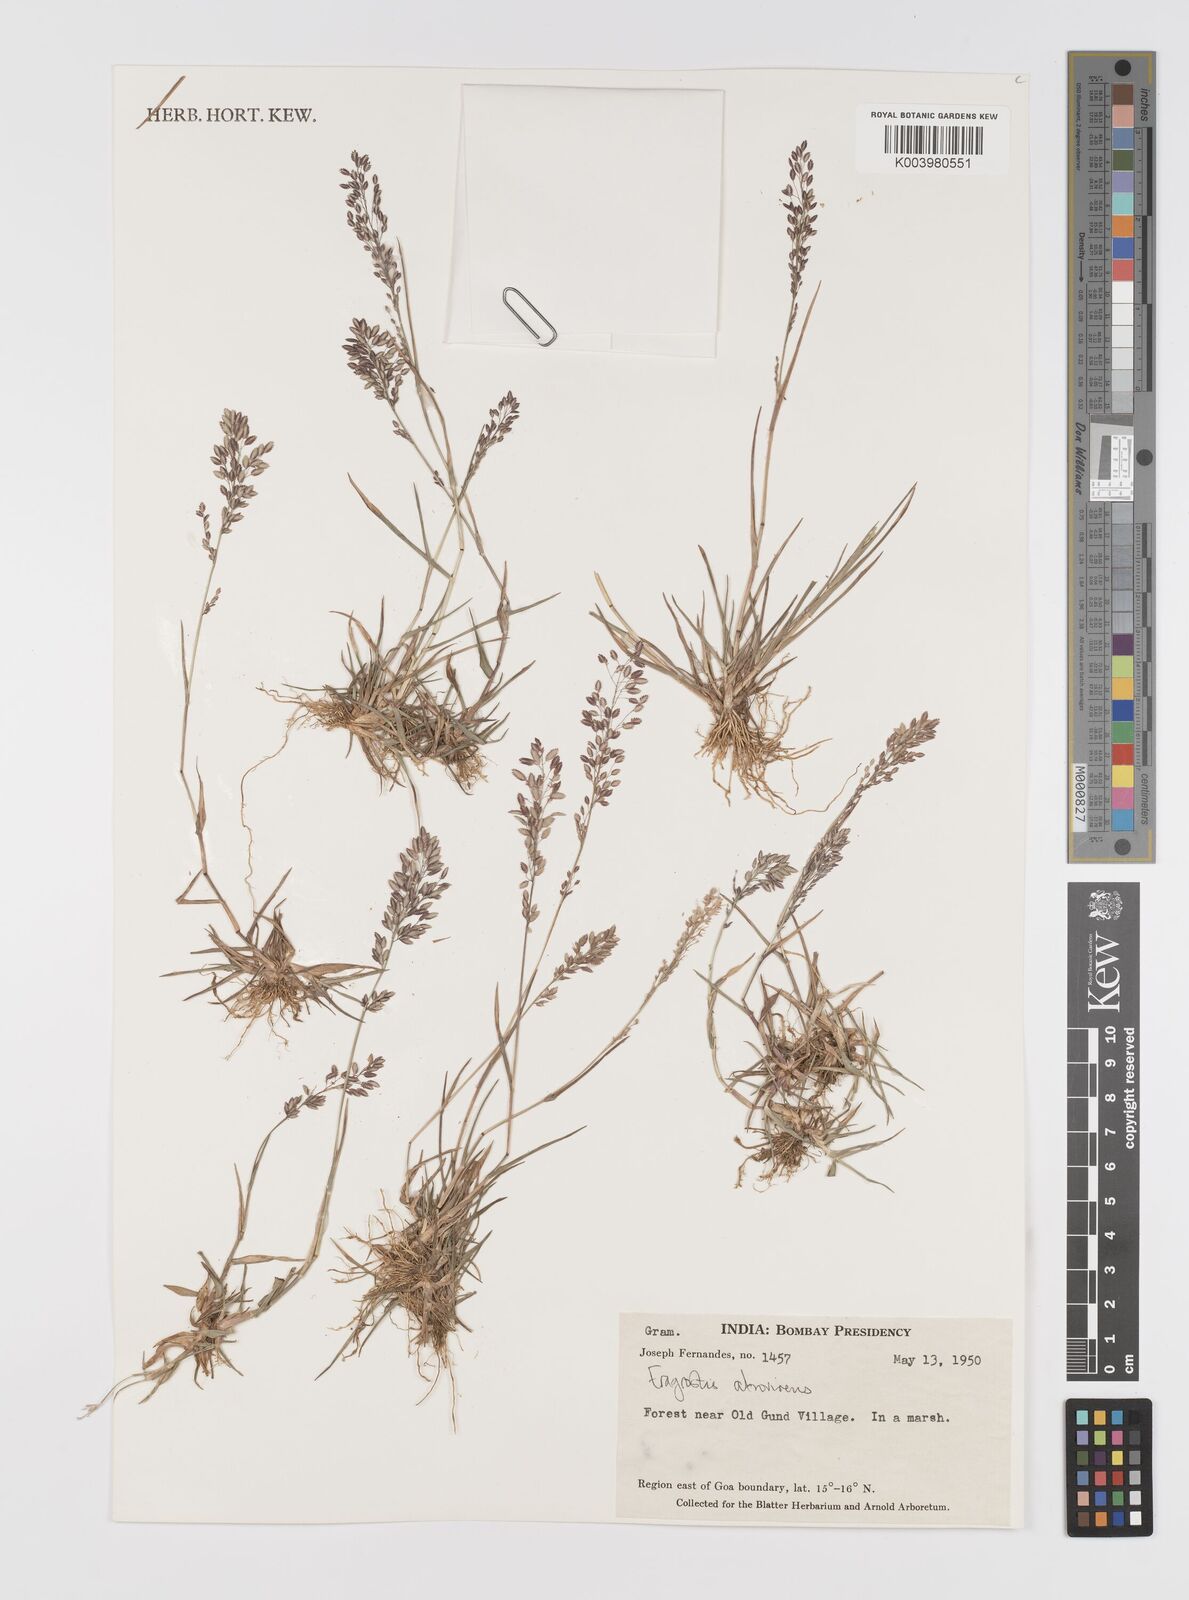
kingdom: Plantae
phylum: Tracheophyta
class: Liliopsida
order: Poales
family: Poaceae
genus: Eragrostis
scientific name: Eragrostis
